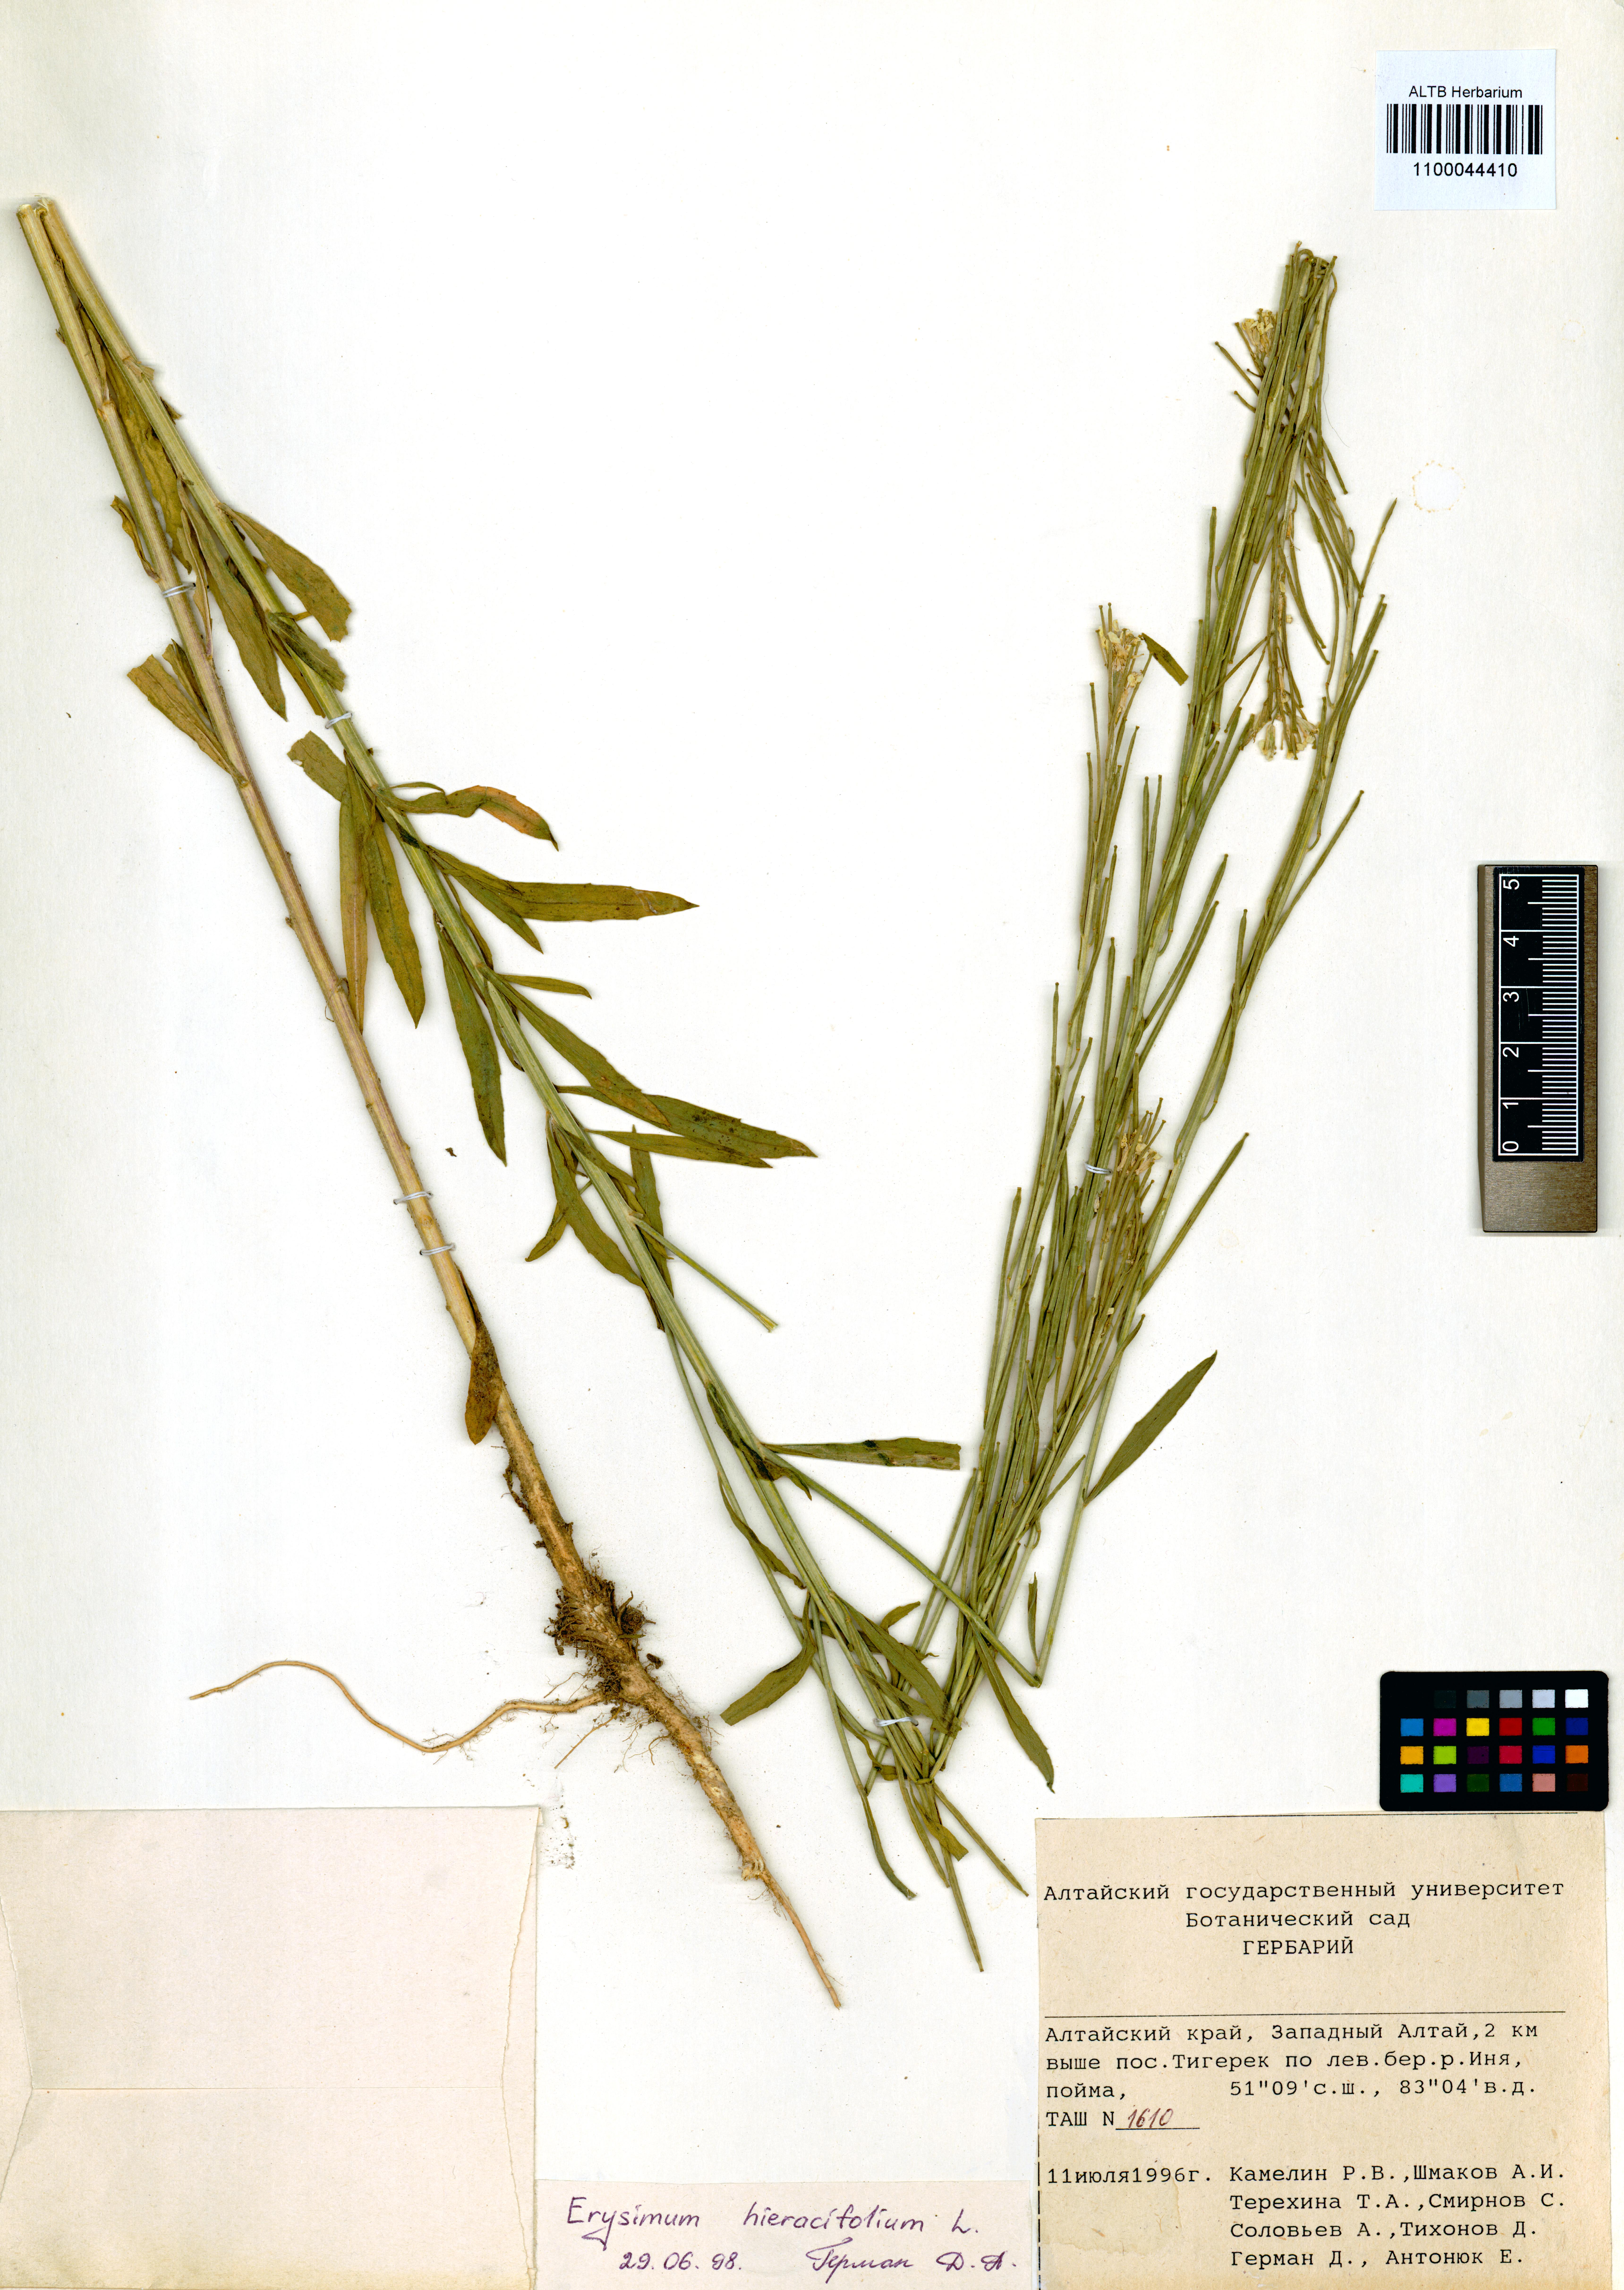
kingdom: Plantae
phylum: Tracheophyta
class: Magnoliopsida
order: Brassicales
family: Brassicaceae
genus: Erysimum
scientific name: Erysimum hieraciifolium
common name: European wallflower
